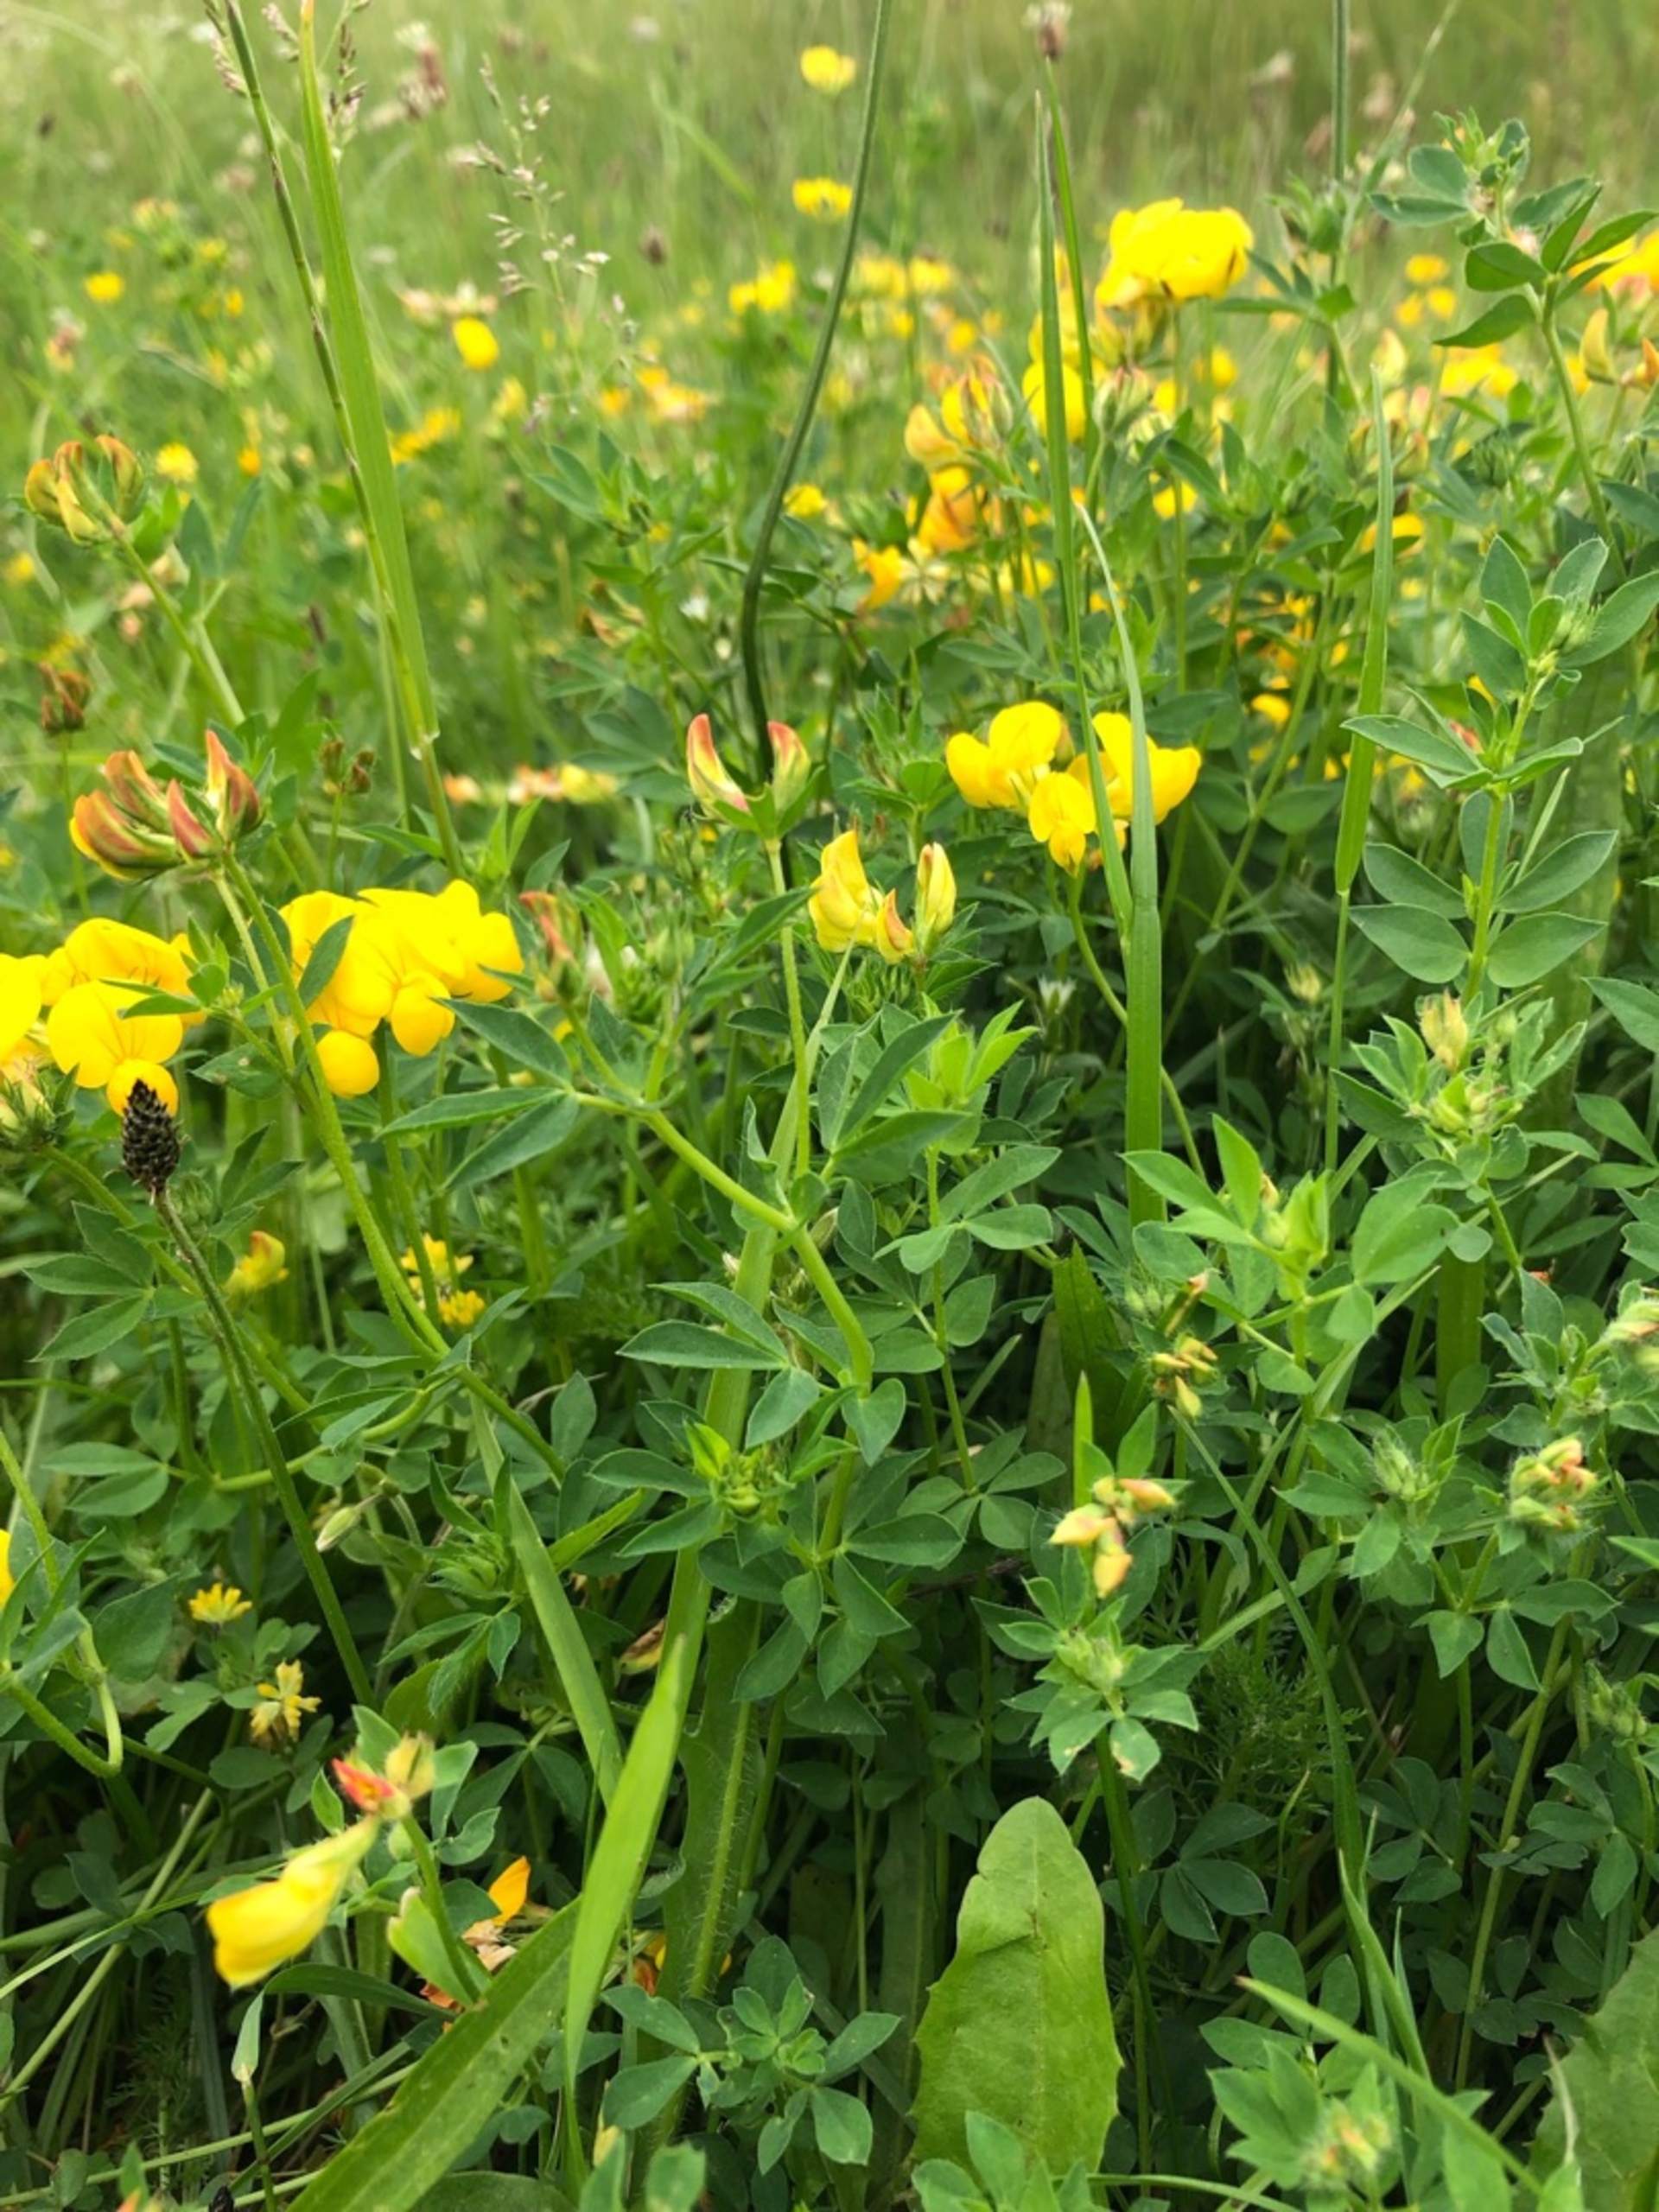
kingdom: Plantae
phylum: Tracheophyta
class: Magnoliopsida
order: Fabales
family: Fabaceae
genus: Lotus
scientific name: Lotus corniculatus
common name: Almindelig kællingetand
